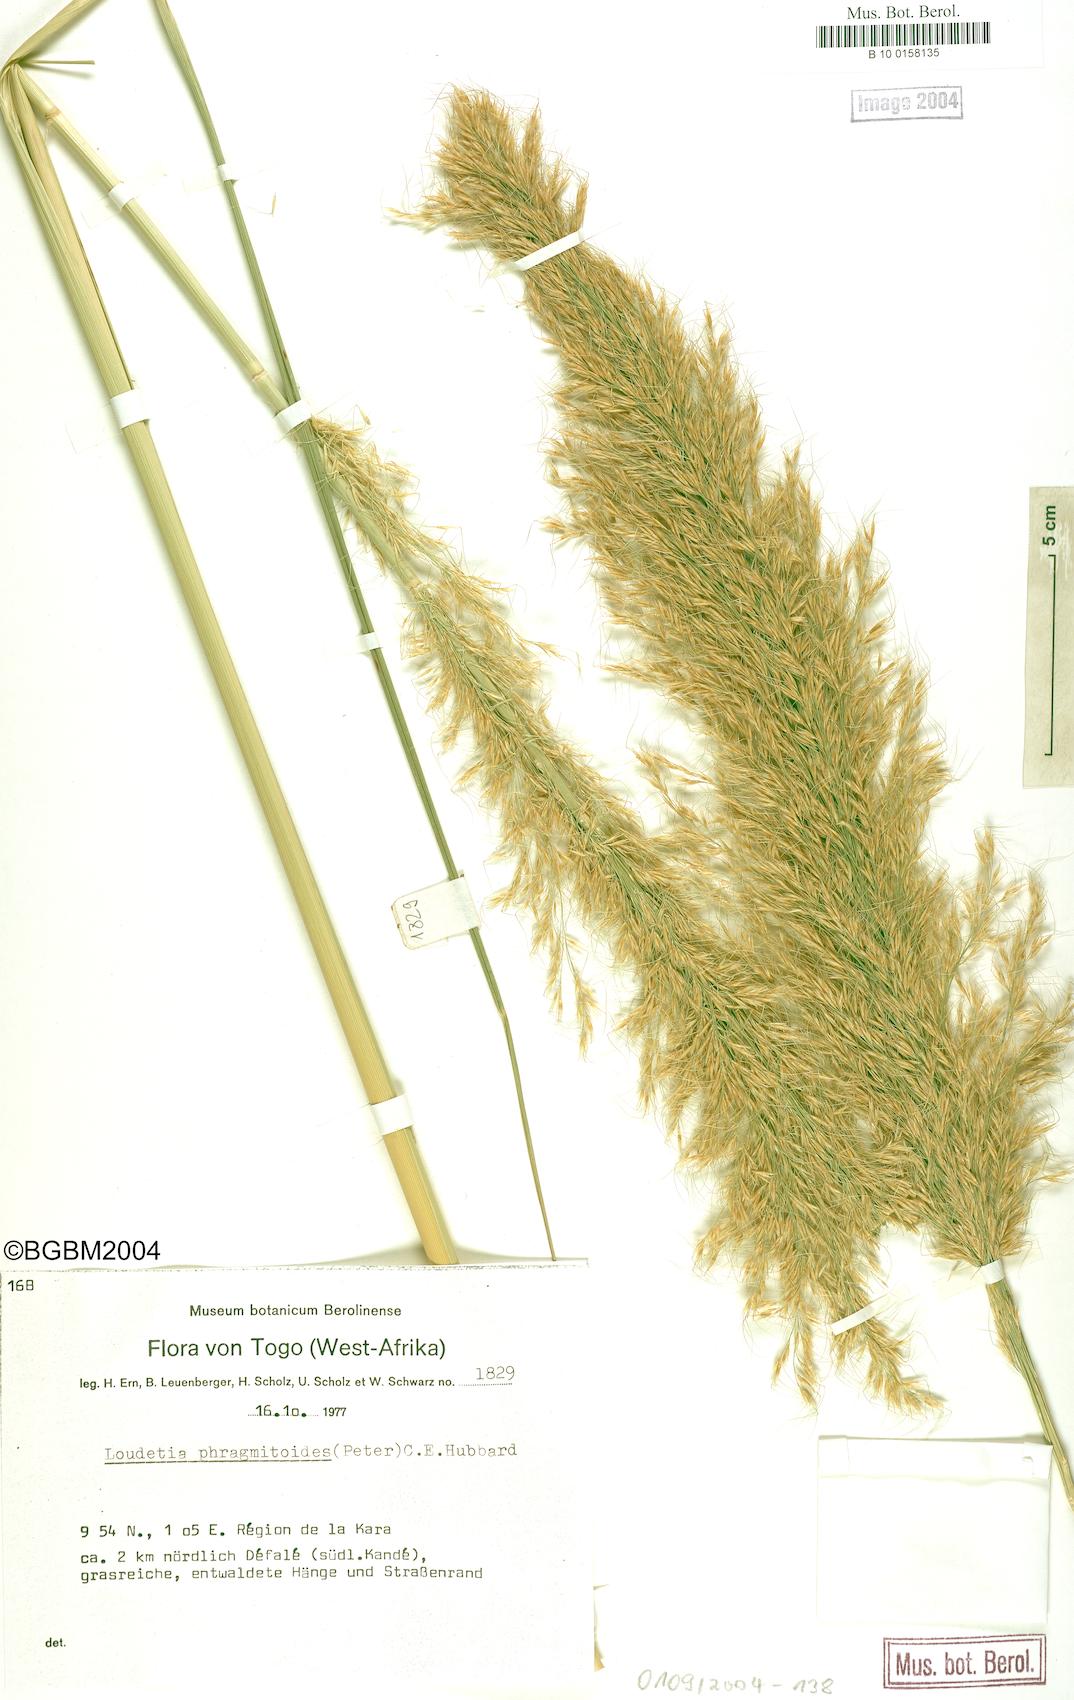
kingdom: Plantae
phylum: Tracheophyta
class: Liliopsida
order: Poales
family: Poaceae
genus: Loudetia
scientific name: Loudetia phragmitoides
